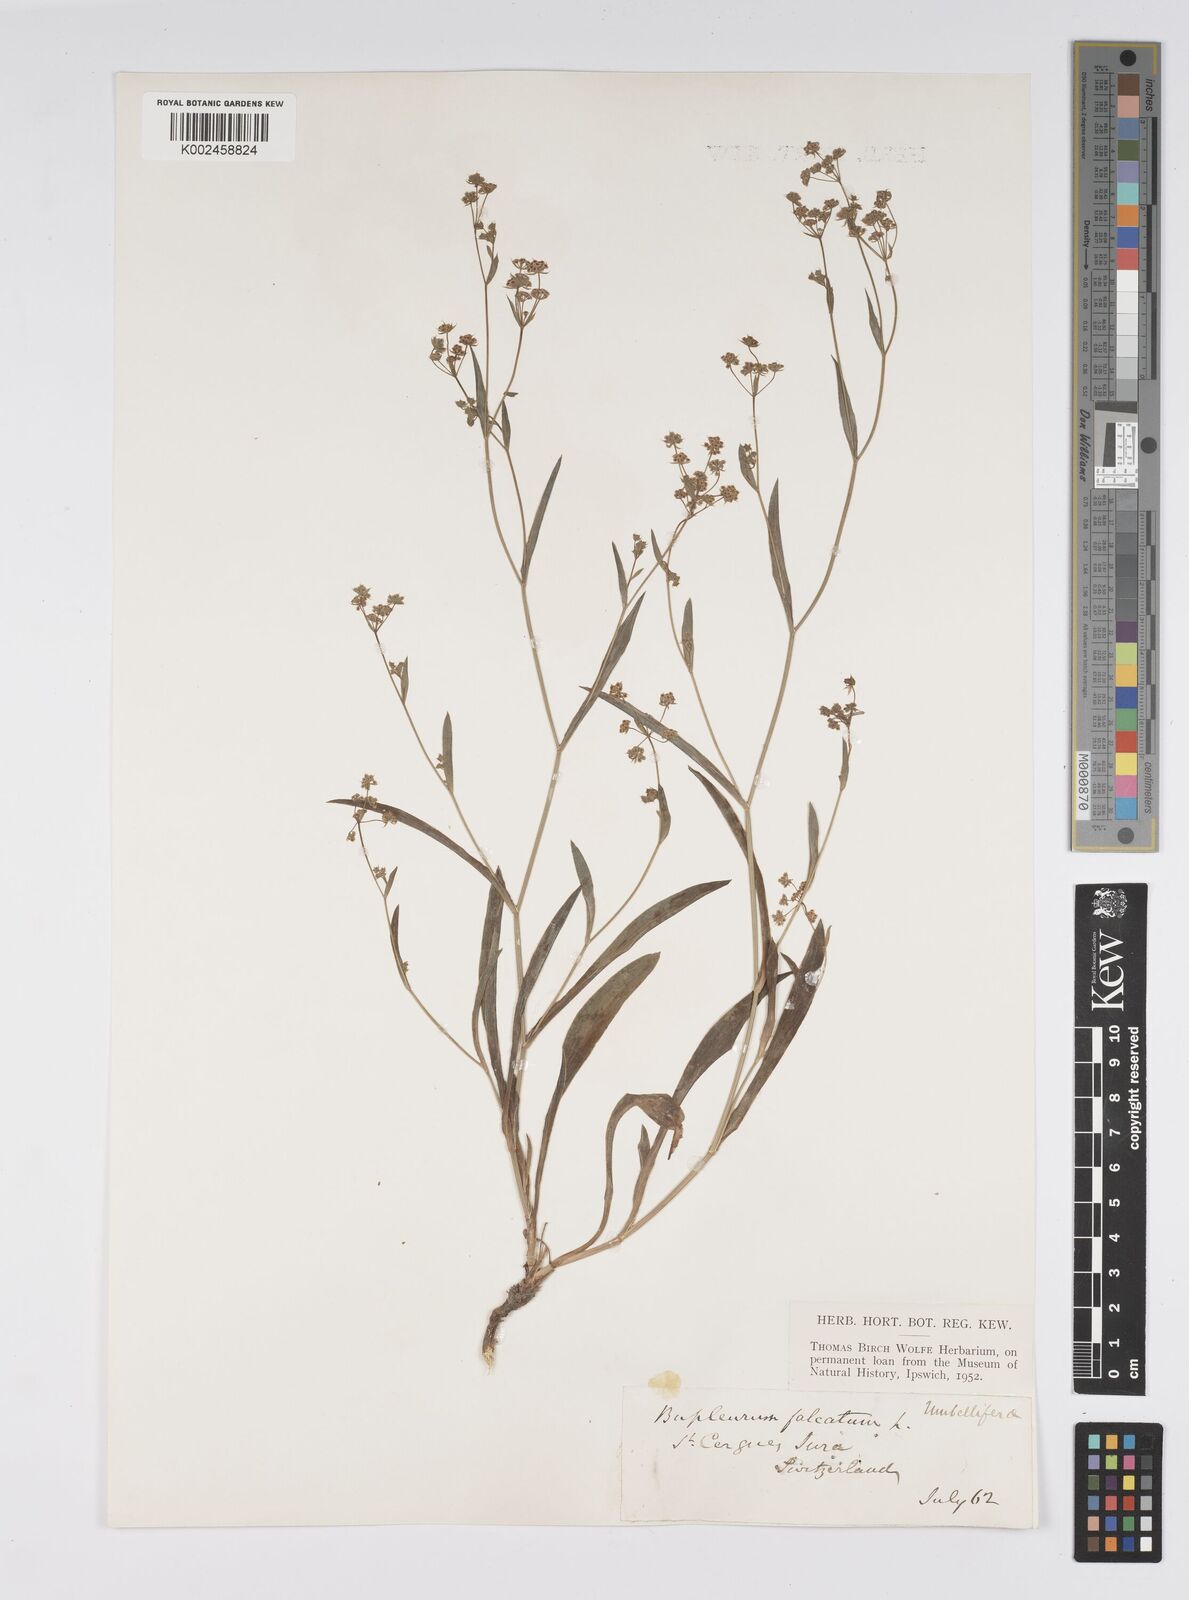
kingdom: Plantae
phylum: Tracheophyta
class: Magnoliopsida
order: Apiales
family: Apiaceae
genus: Bupleurum
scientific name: Bupleurum falcatum
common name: Sickle-leaved hare's-ear
